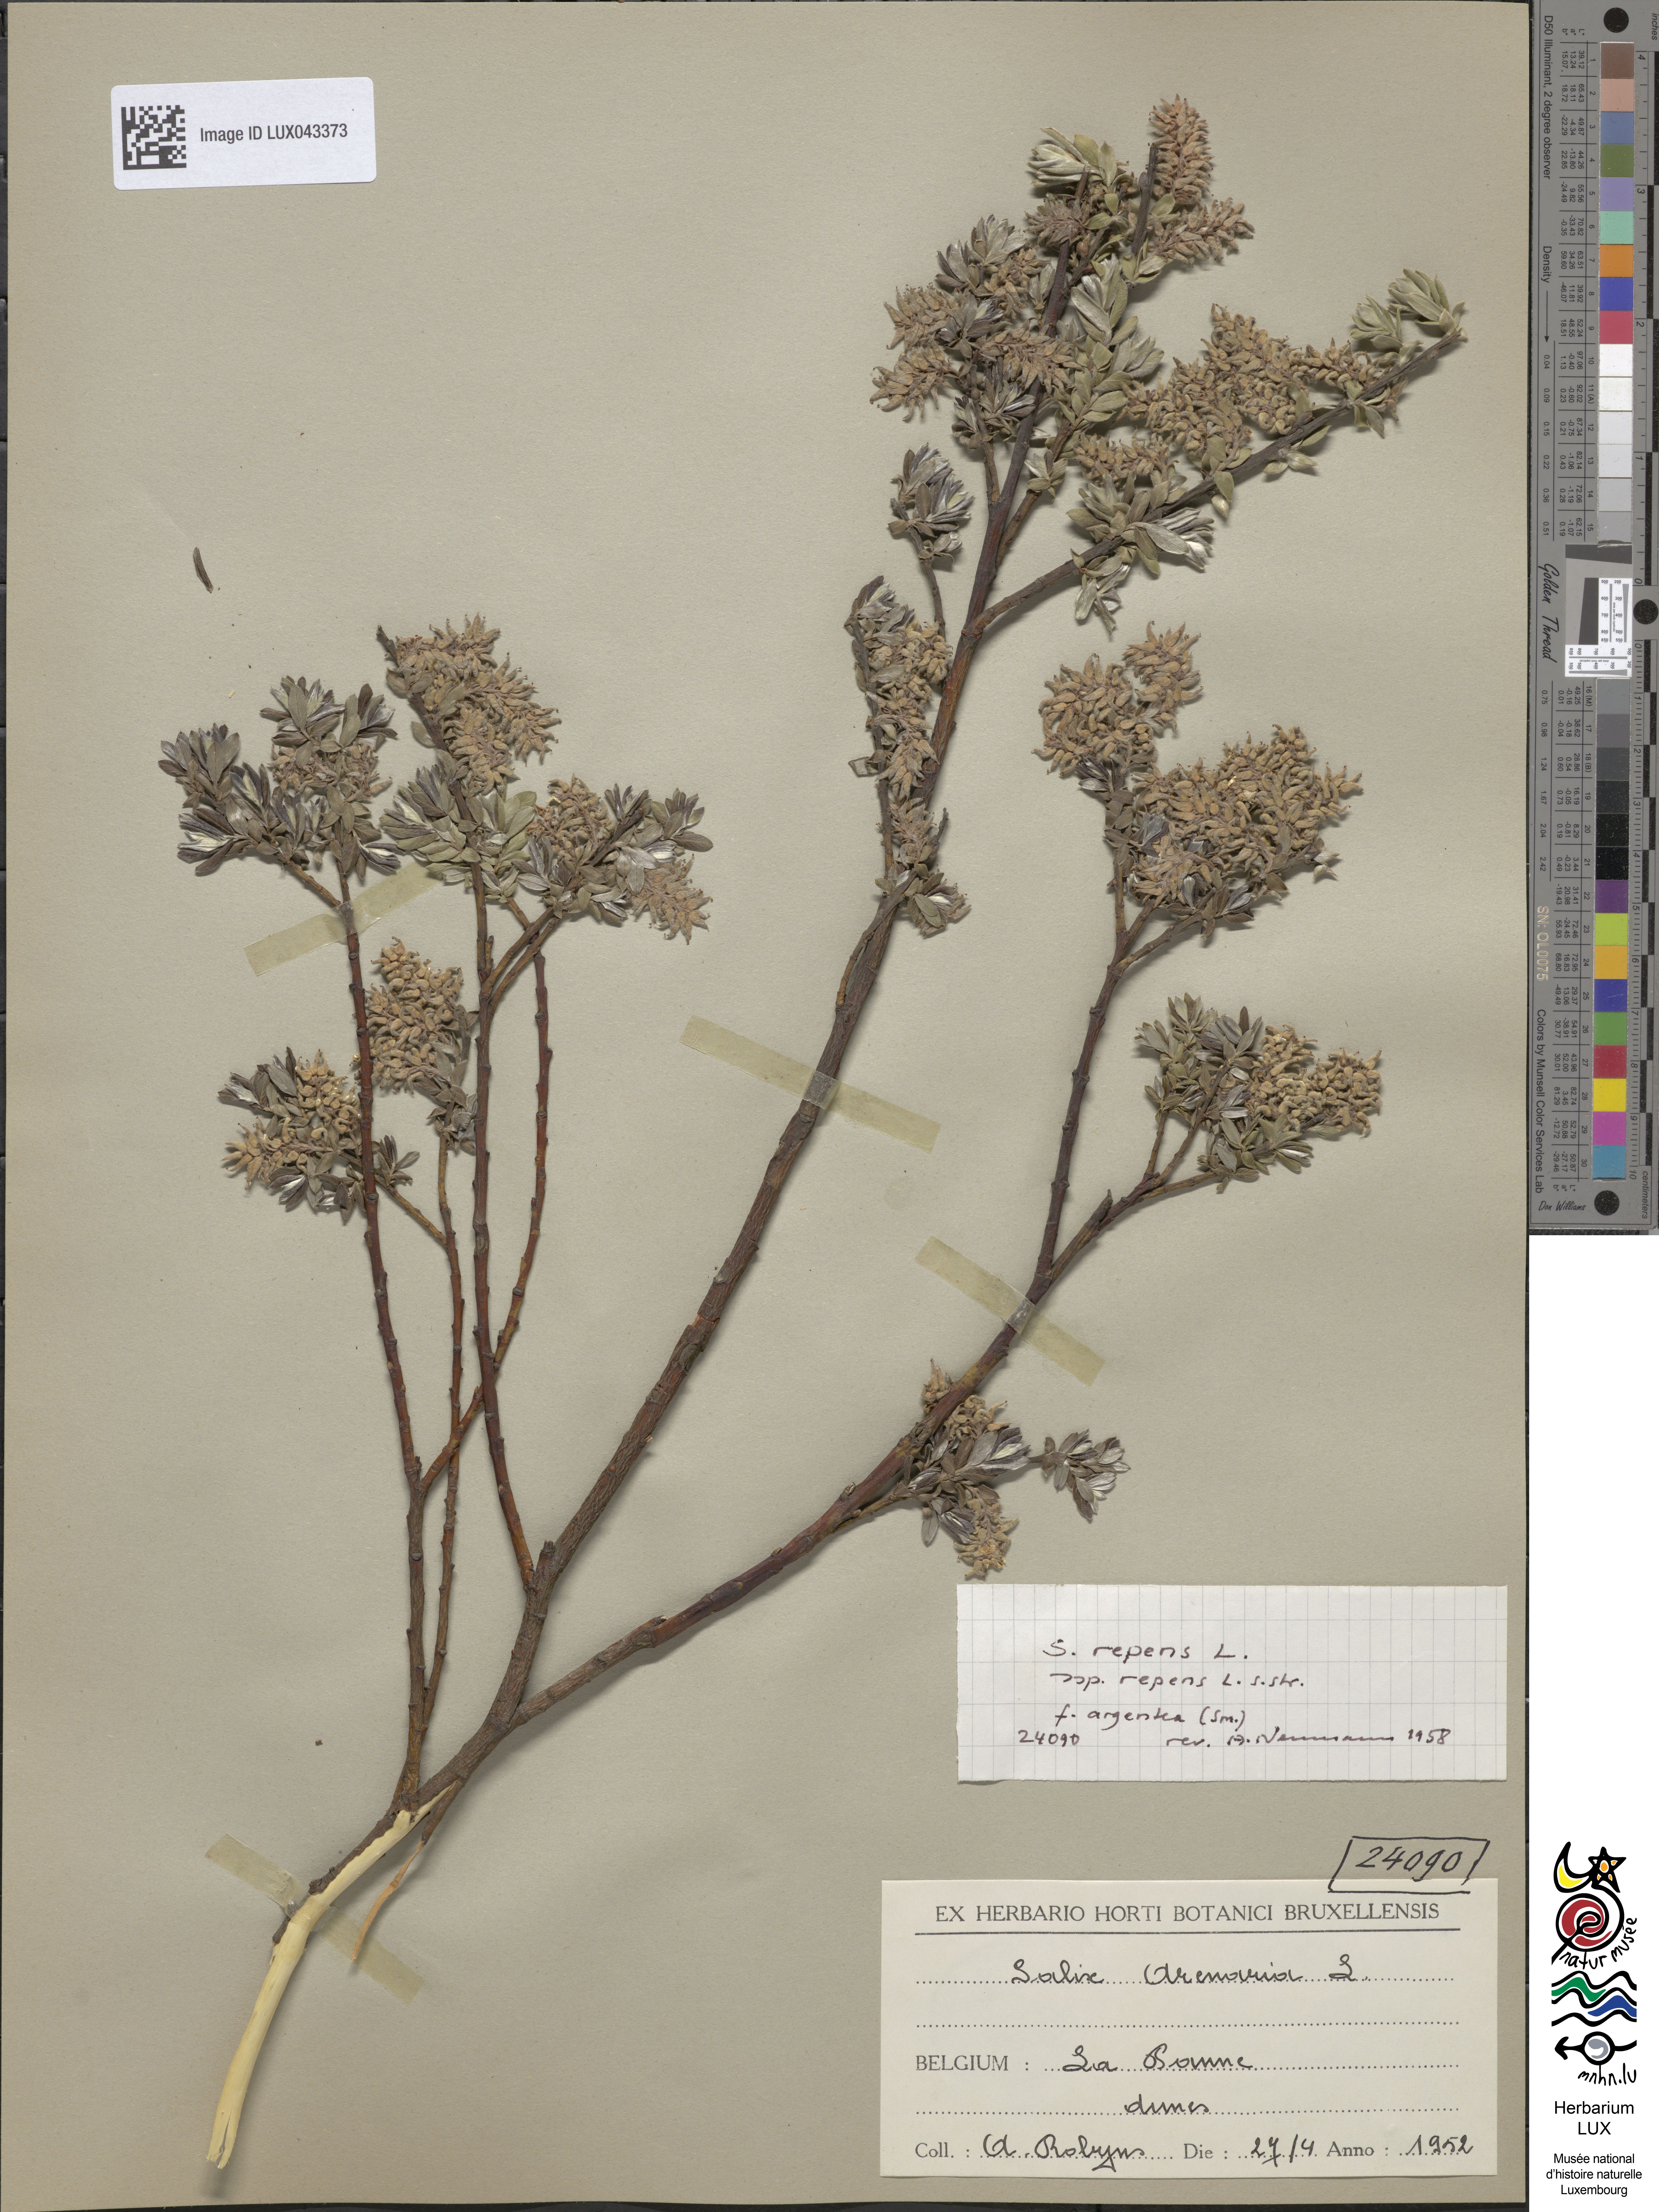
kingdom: Plantae
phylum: Tracheophyta
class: Magnoliopsida
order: Malpighiales
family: Salicaceae
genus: Salix
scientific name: Salix repens
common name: Creeping willow
